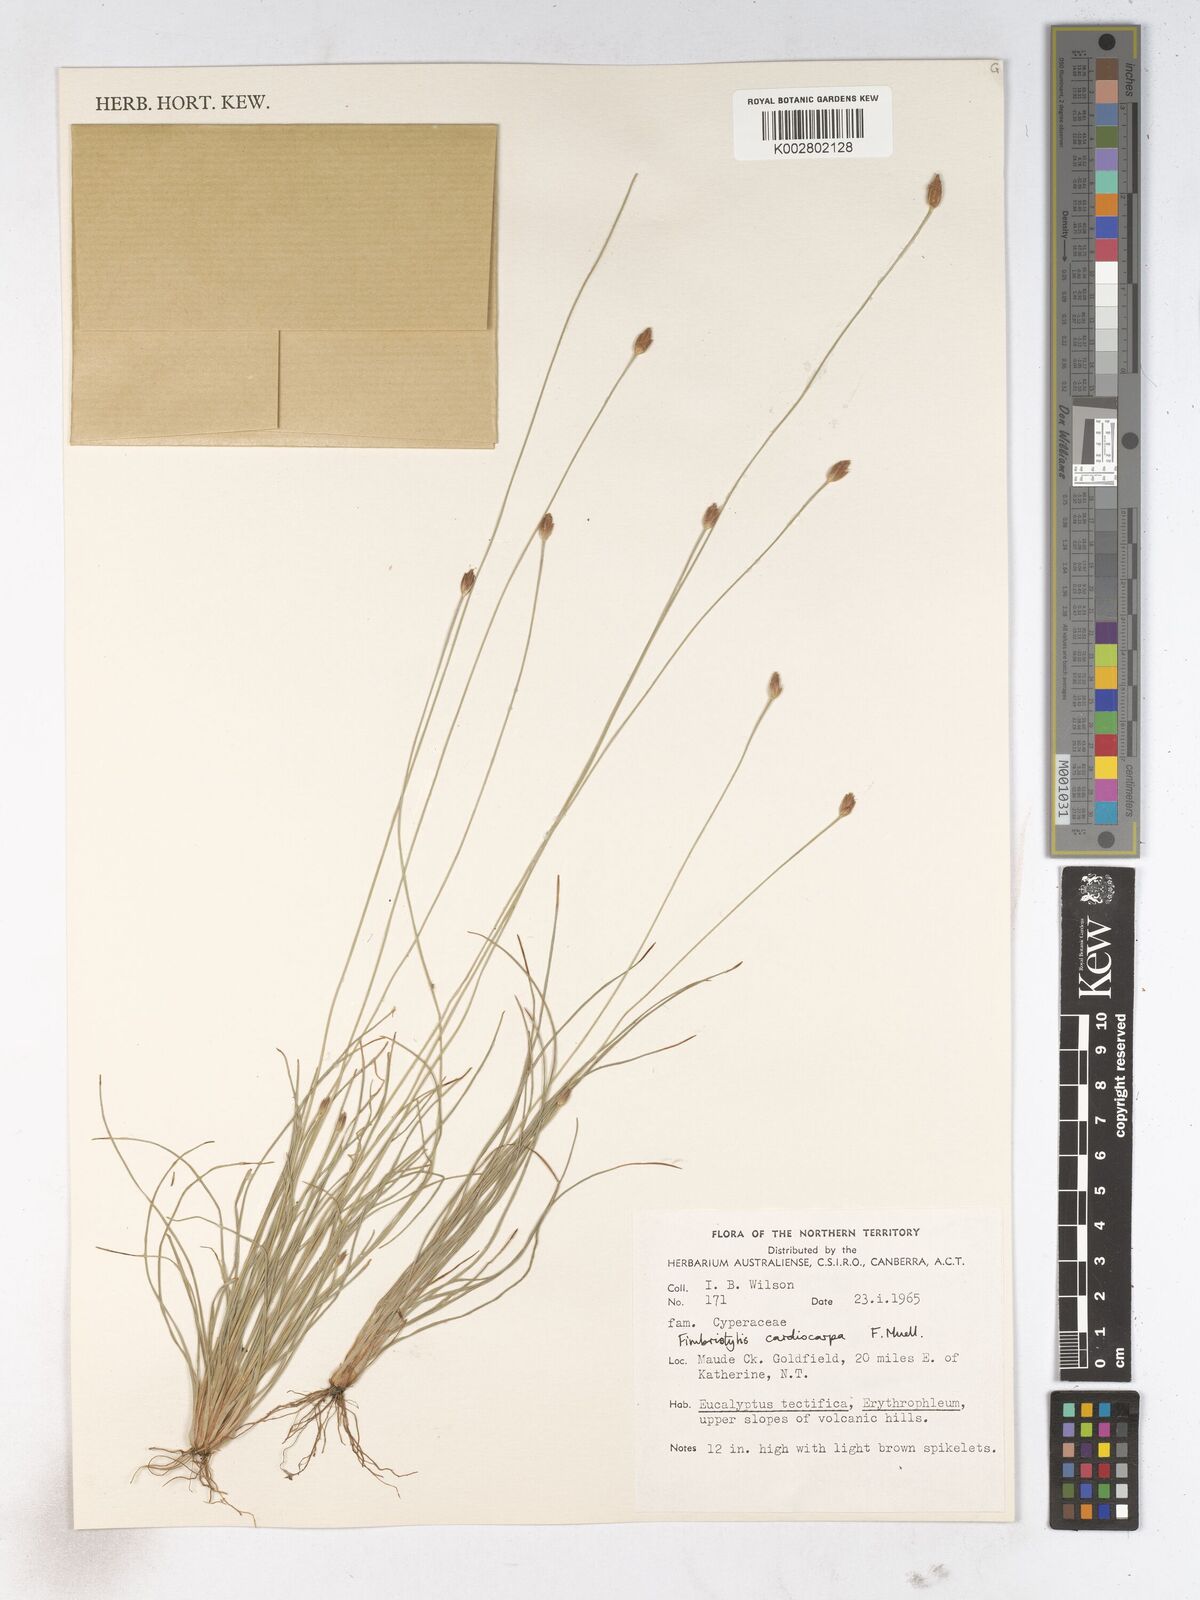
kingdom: Plantae
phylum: Tracheophyta
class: Liliopsida
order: Poales
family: Cyperaceae
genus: Fimbristylis
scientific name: Fimbristylis cardiocarpa
